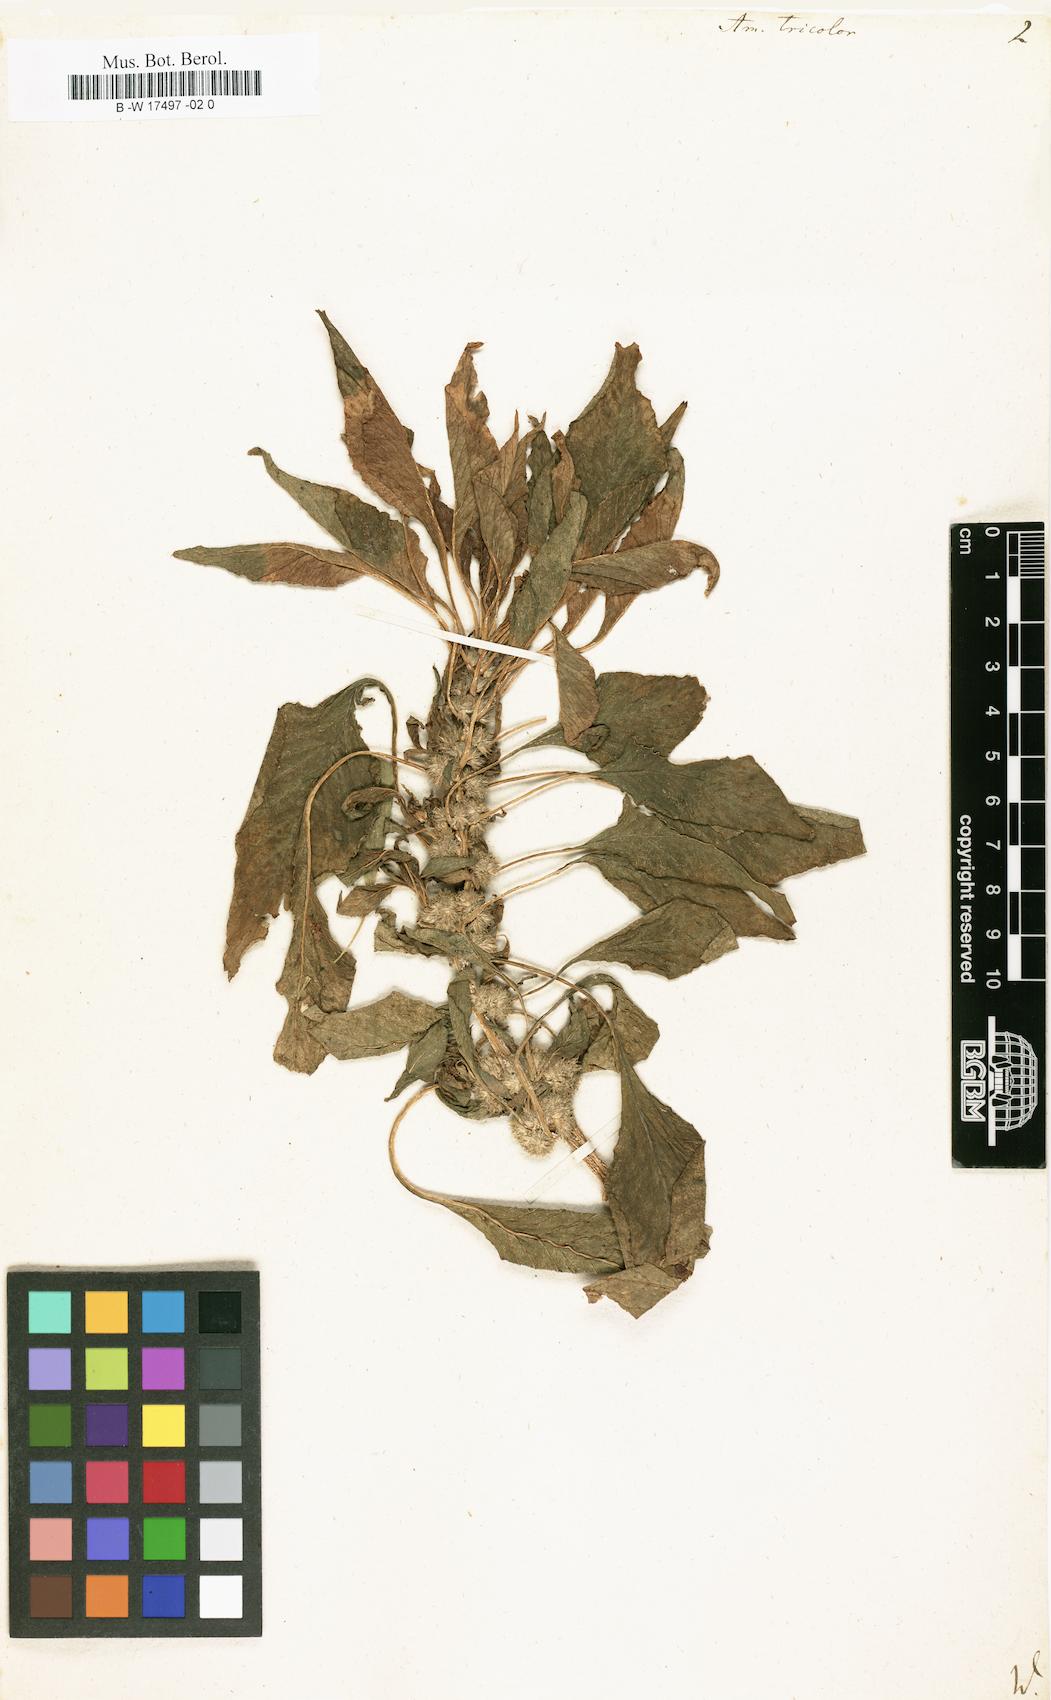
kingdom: Plantae
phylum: Tracheophyta
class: Magnoliopsida
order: Caryophyllales
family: Amaranthaceae
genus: Amaranthus
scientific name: Amaranthus tricolor
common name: Joseph's-coat
